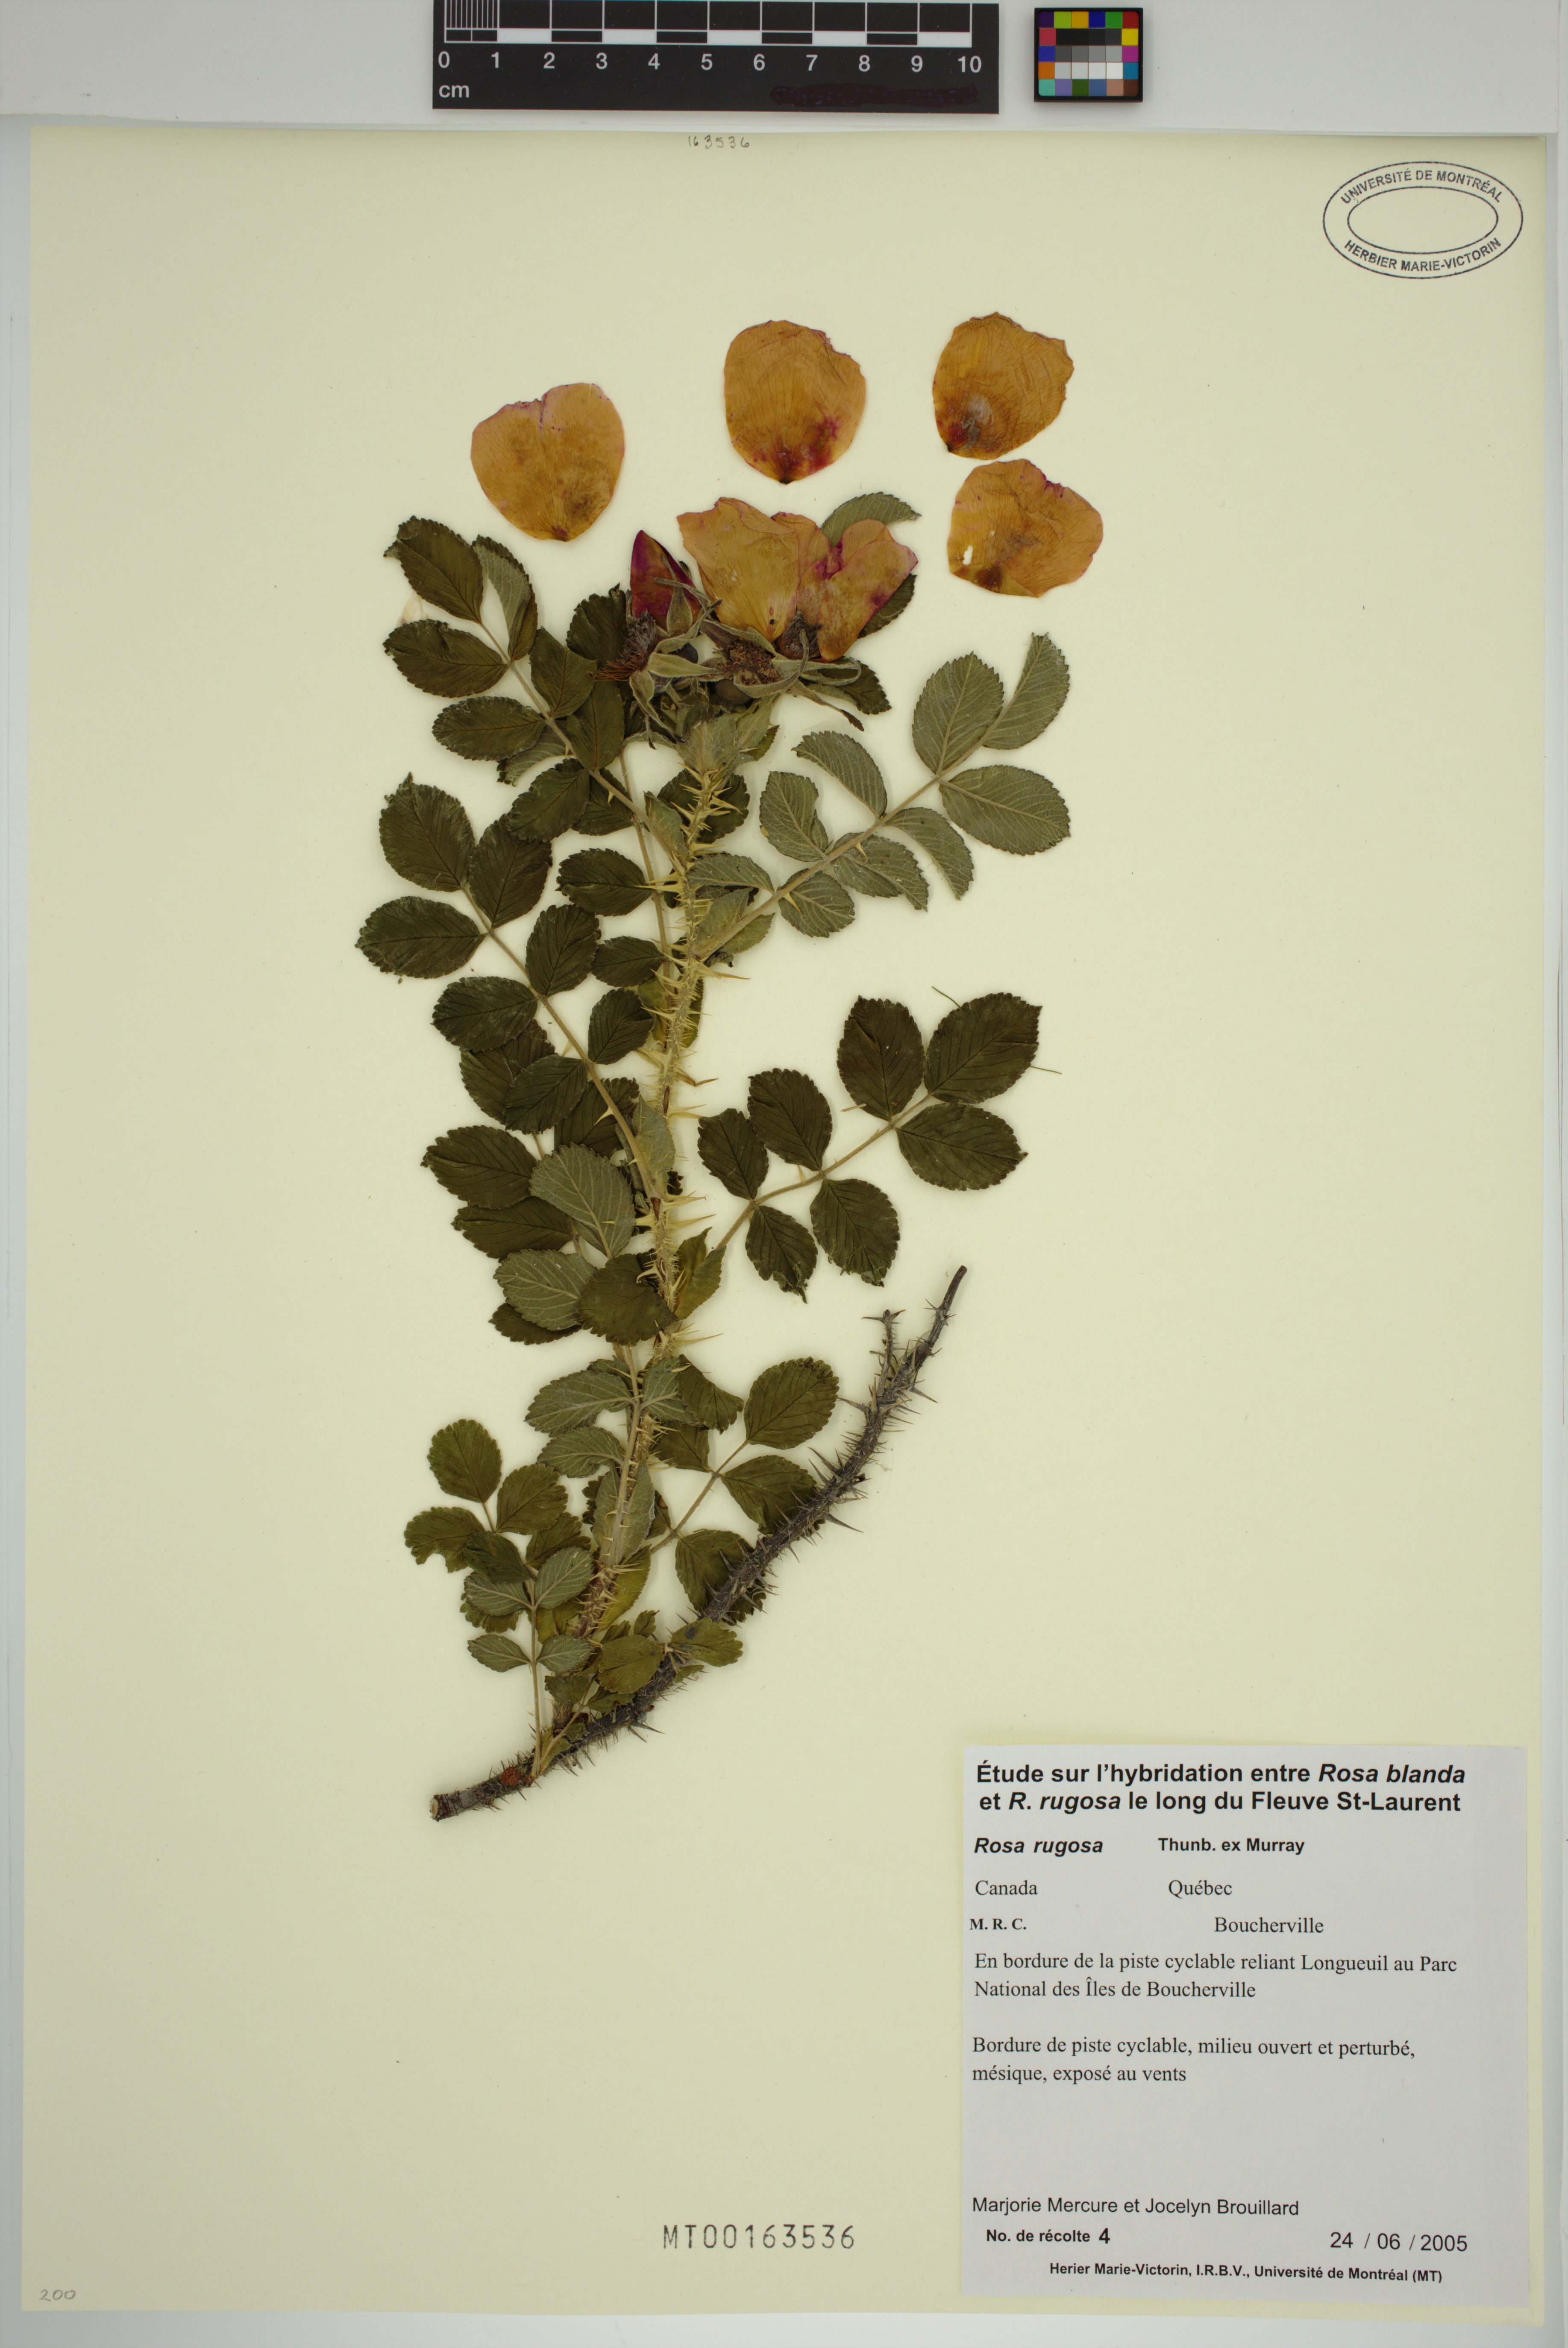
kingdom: Plantae
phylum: Tracheophyta
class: Magnoliopsida
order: Rosales
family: Rosaceae
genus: Rosa
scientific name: Rosa rugosa
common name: Japanese rose
